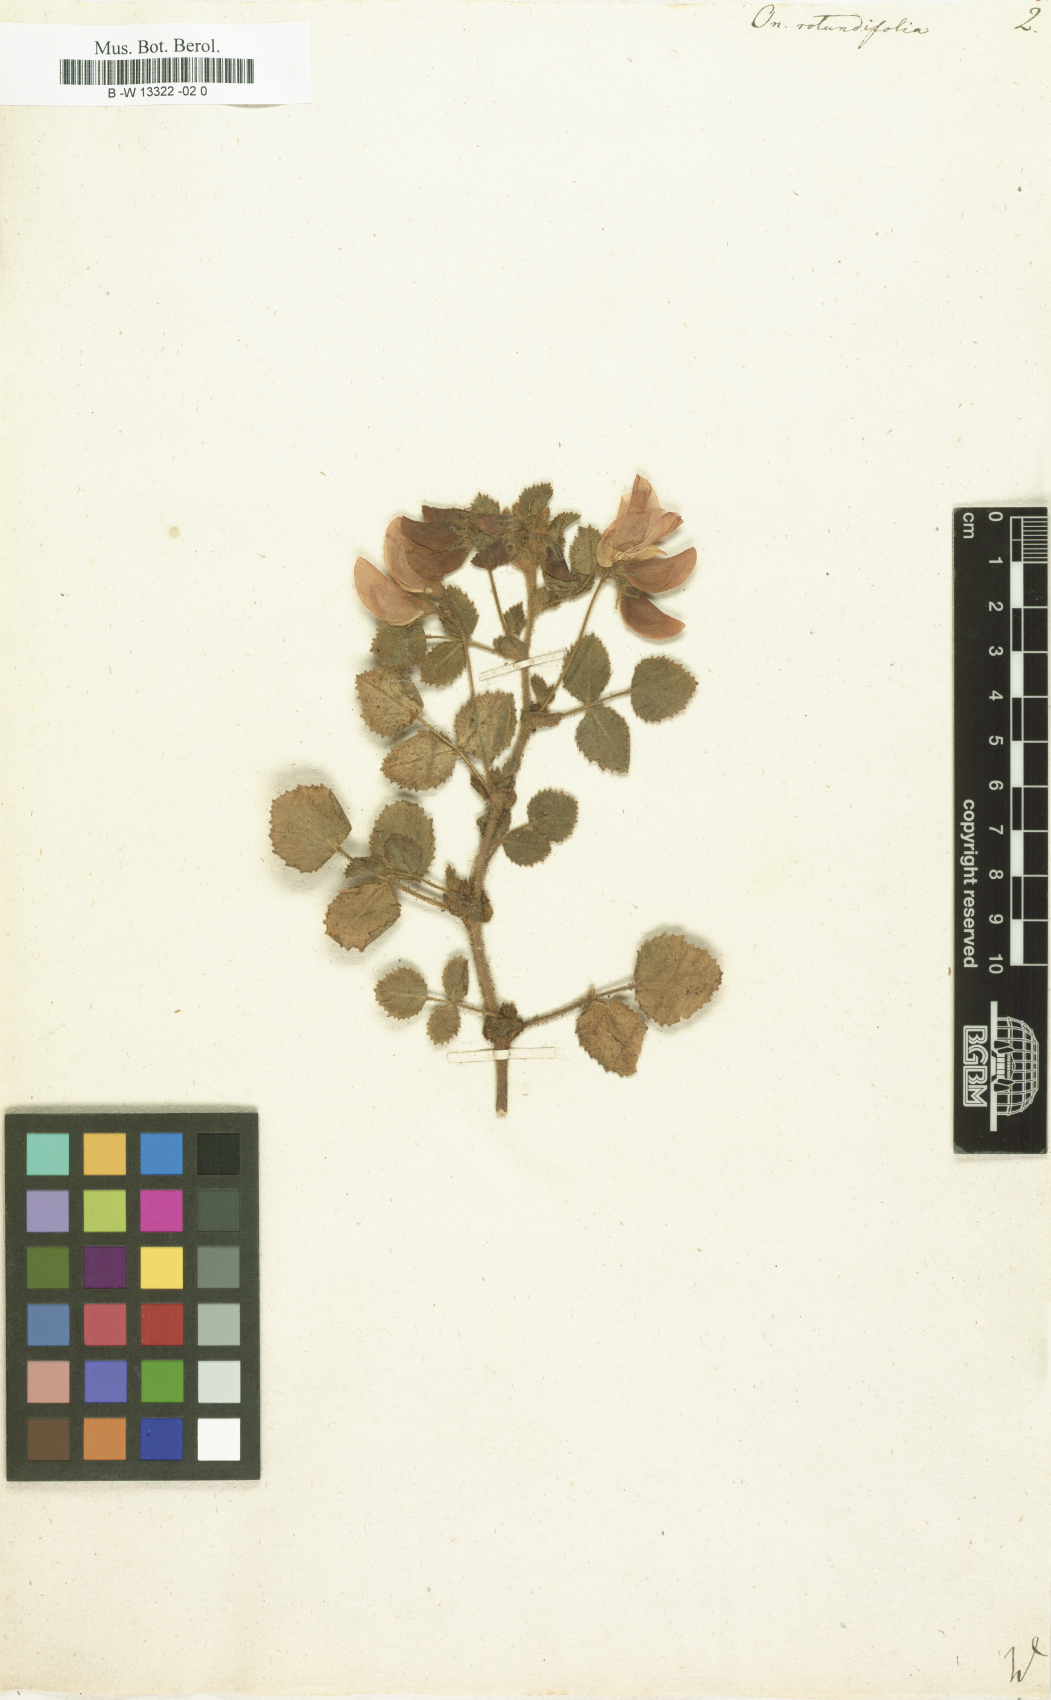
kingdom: Plantae
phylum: Tracheophyta
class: Magnoliopsida
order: Fabales
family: Fabaceae
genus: Ononis
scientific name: Ononis rotundifolia
